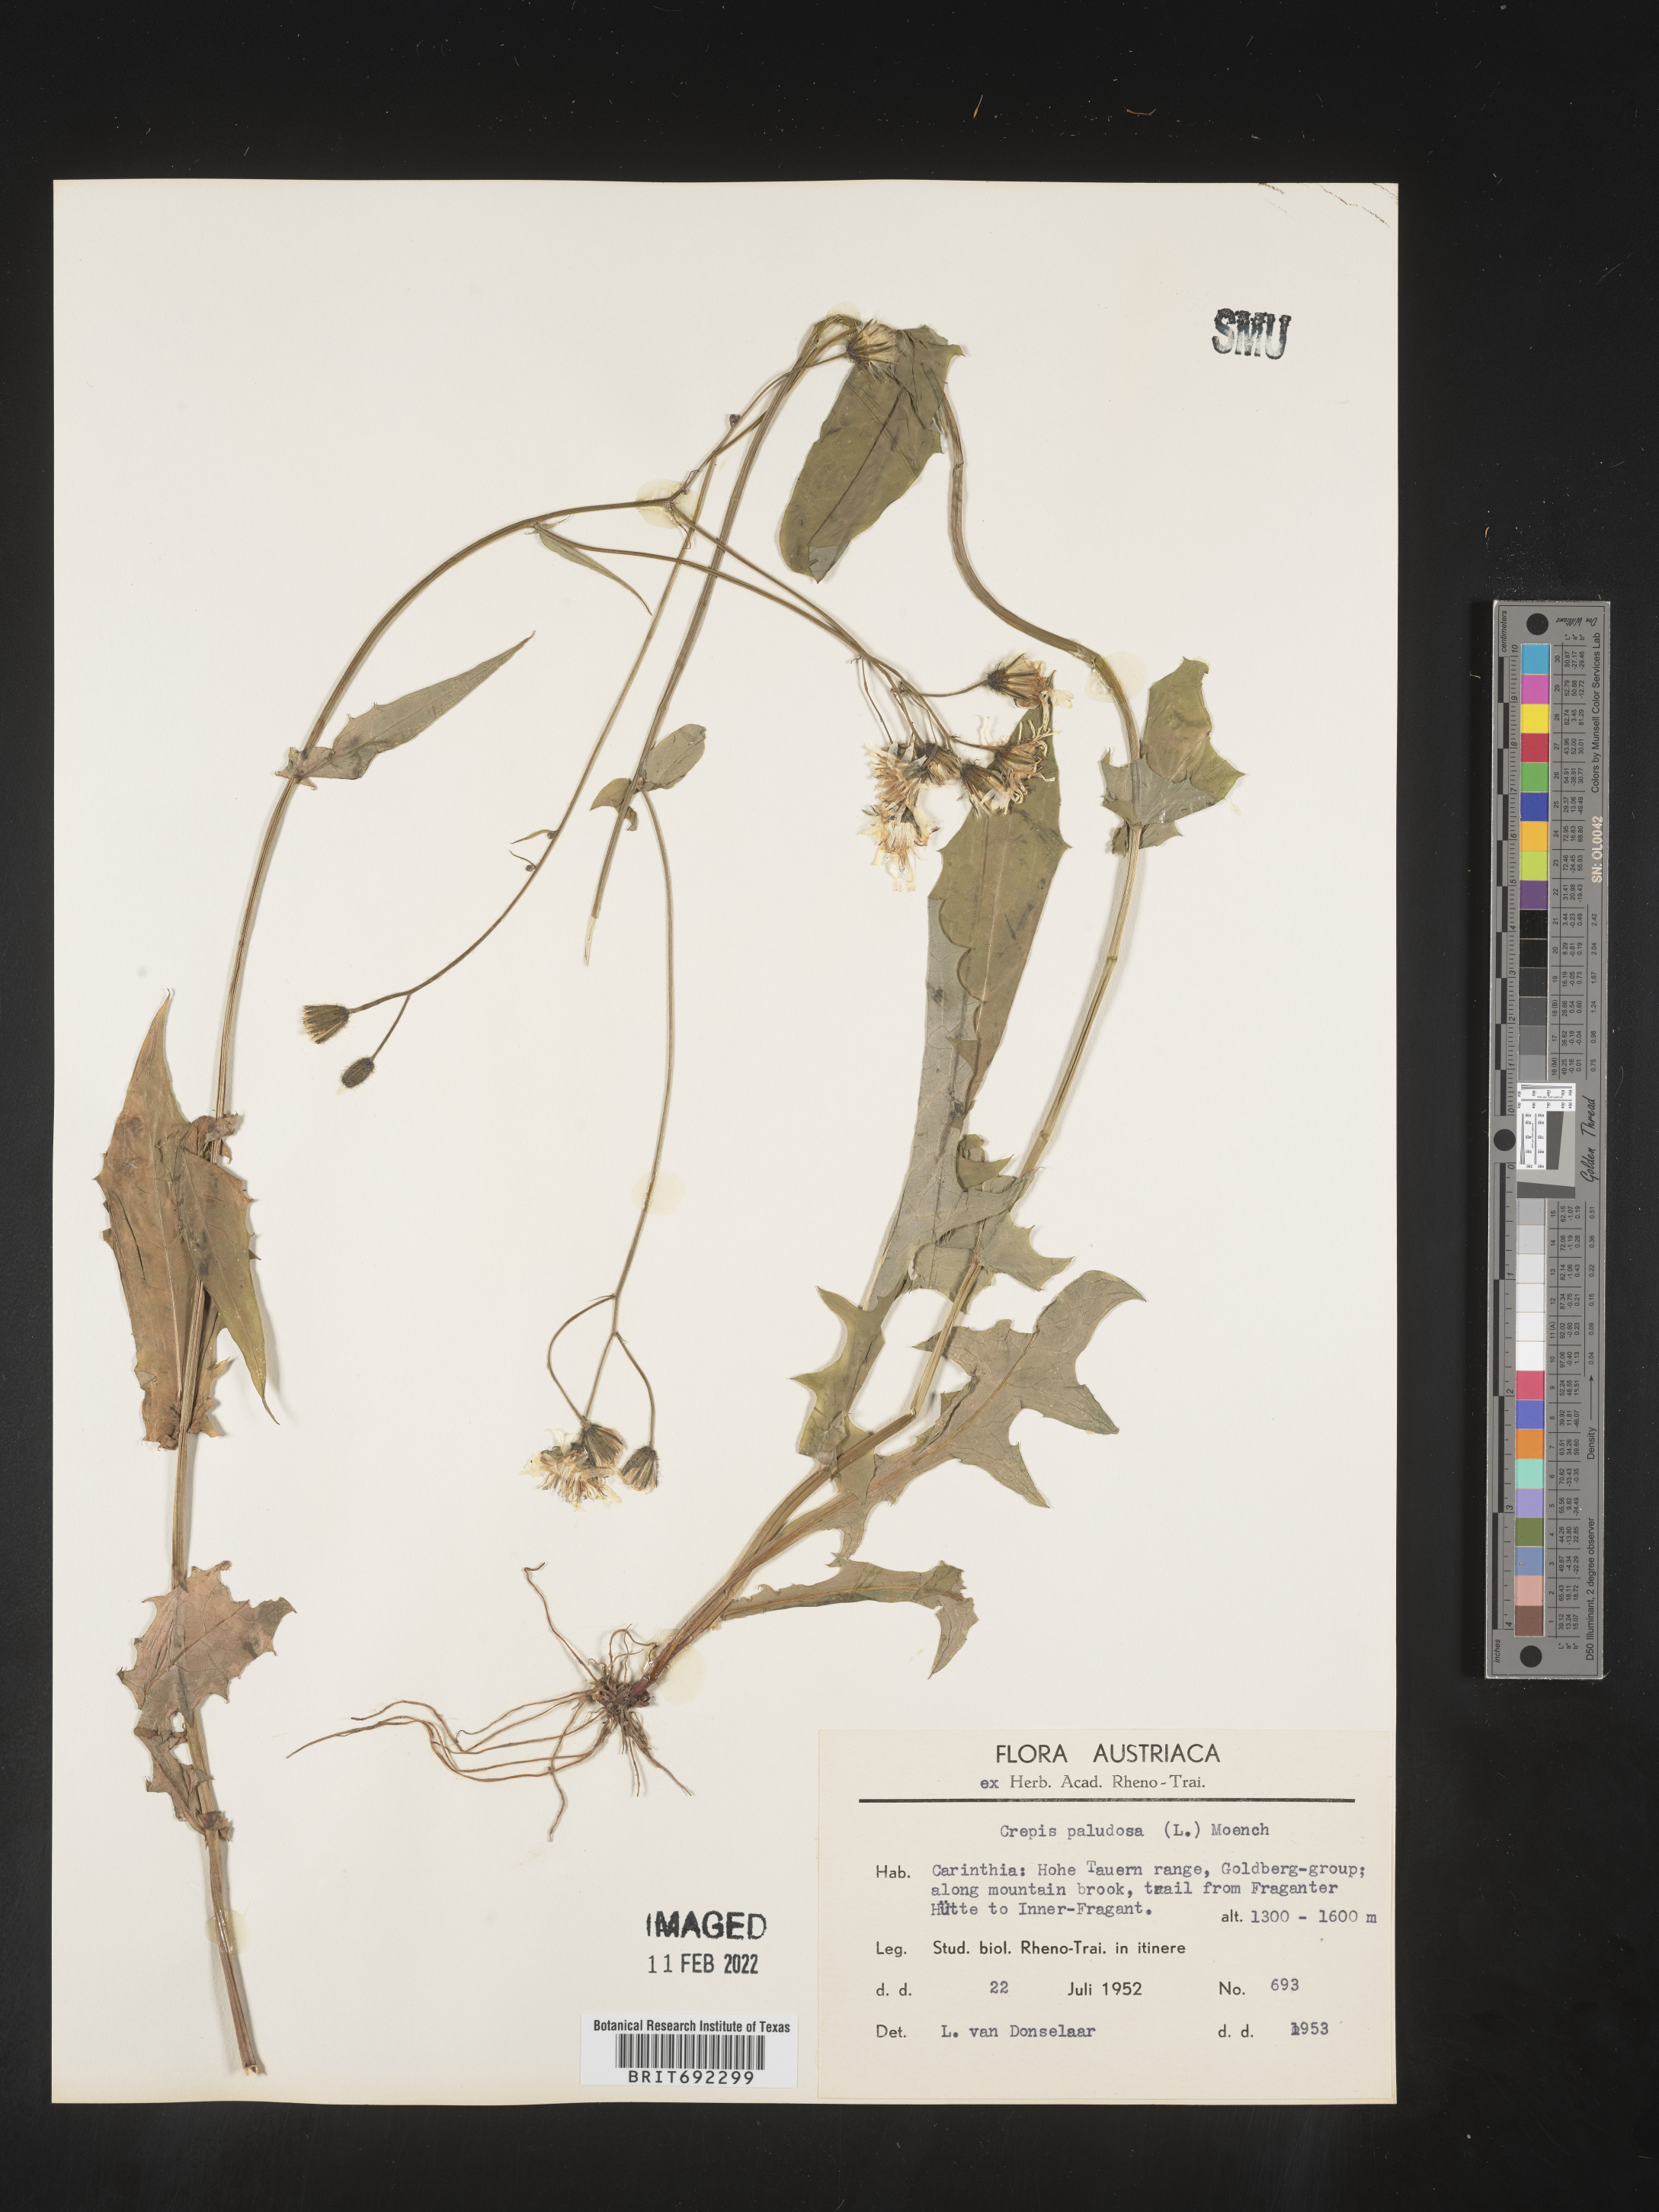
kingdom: Plantae
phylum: Tracheophyta
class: Magnoliopsida
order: Asterales
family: Asteraceae
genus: Crepis
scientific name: Crepis
